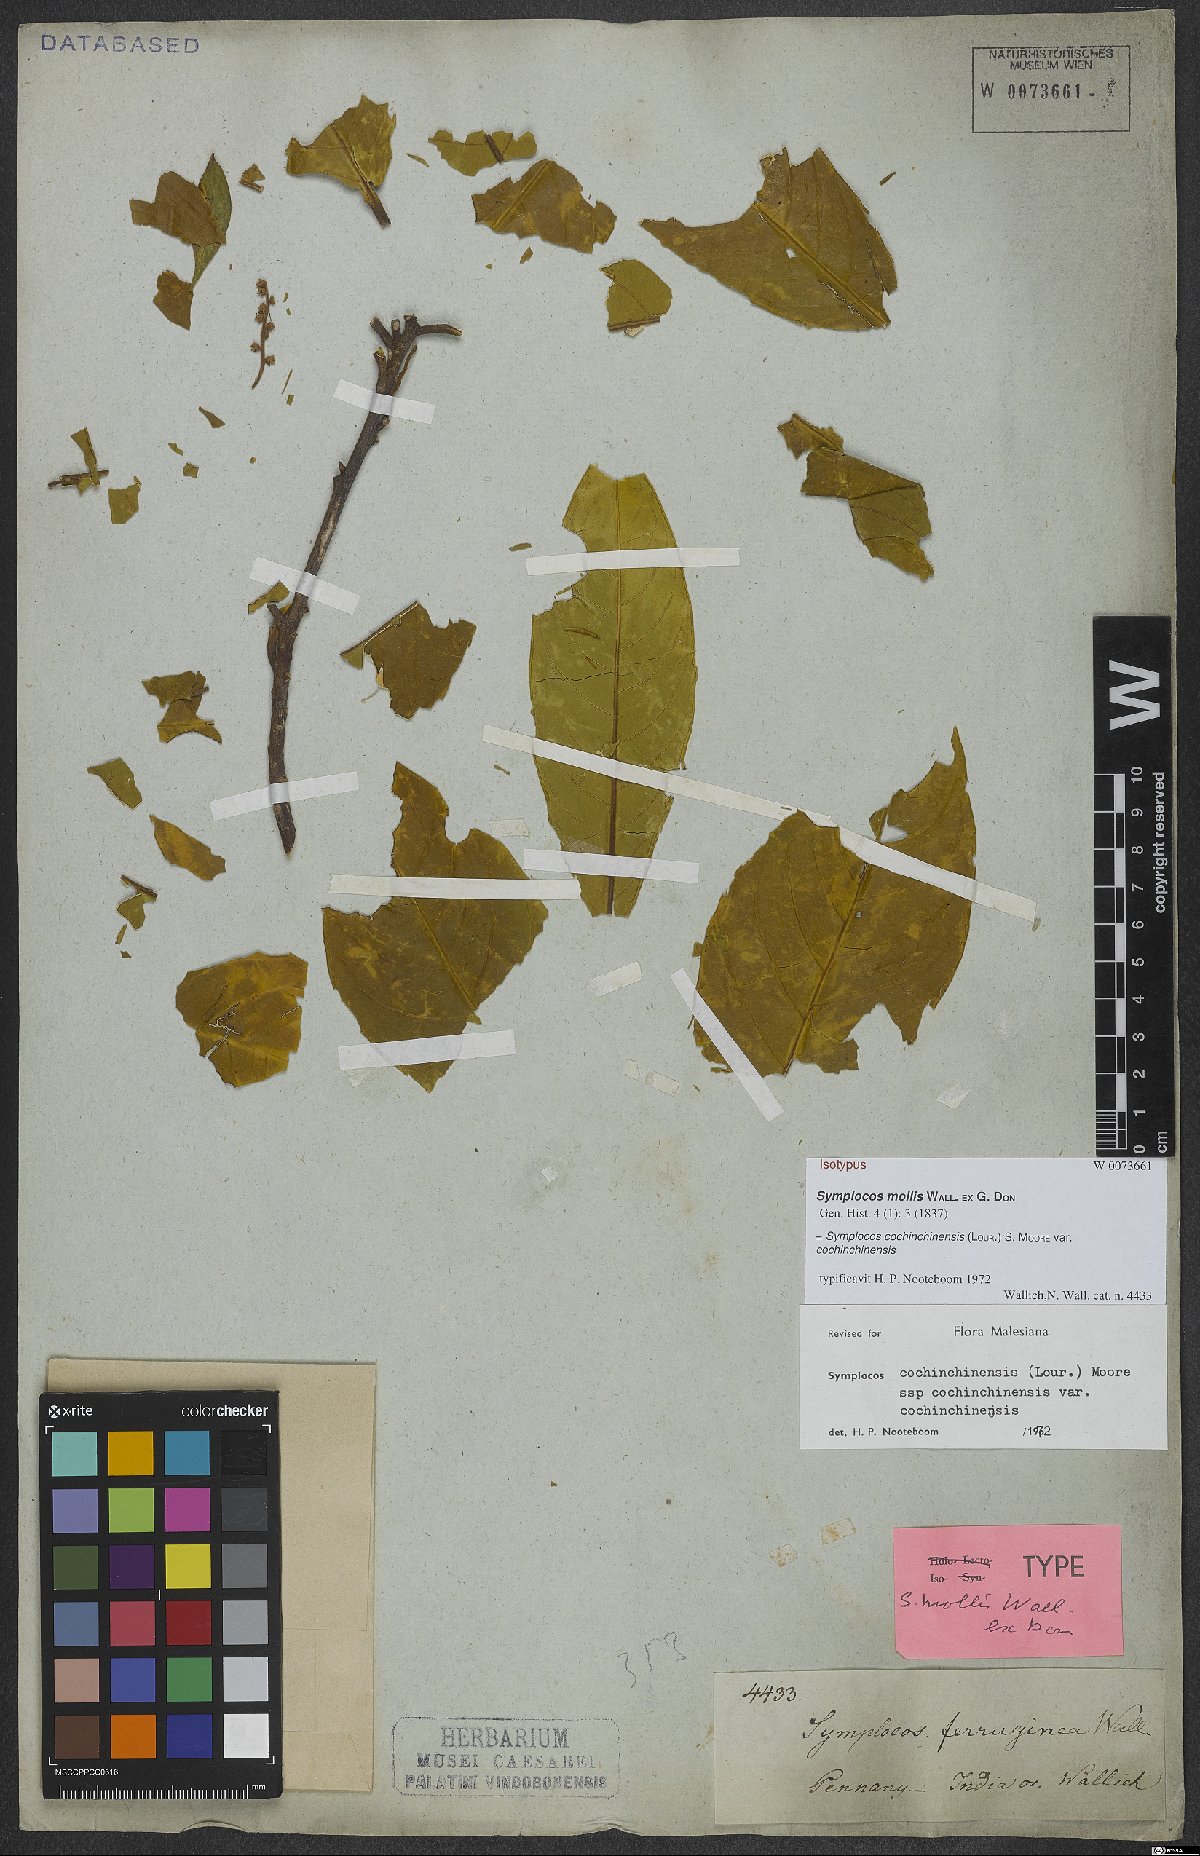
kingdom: Plantae
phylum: Tracheophyta
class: Magnoliopsida
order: Ericales
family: Symplocaceae
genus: Symplocos
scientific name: Symplocos cochinchinensis
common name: Buff hazelwood
